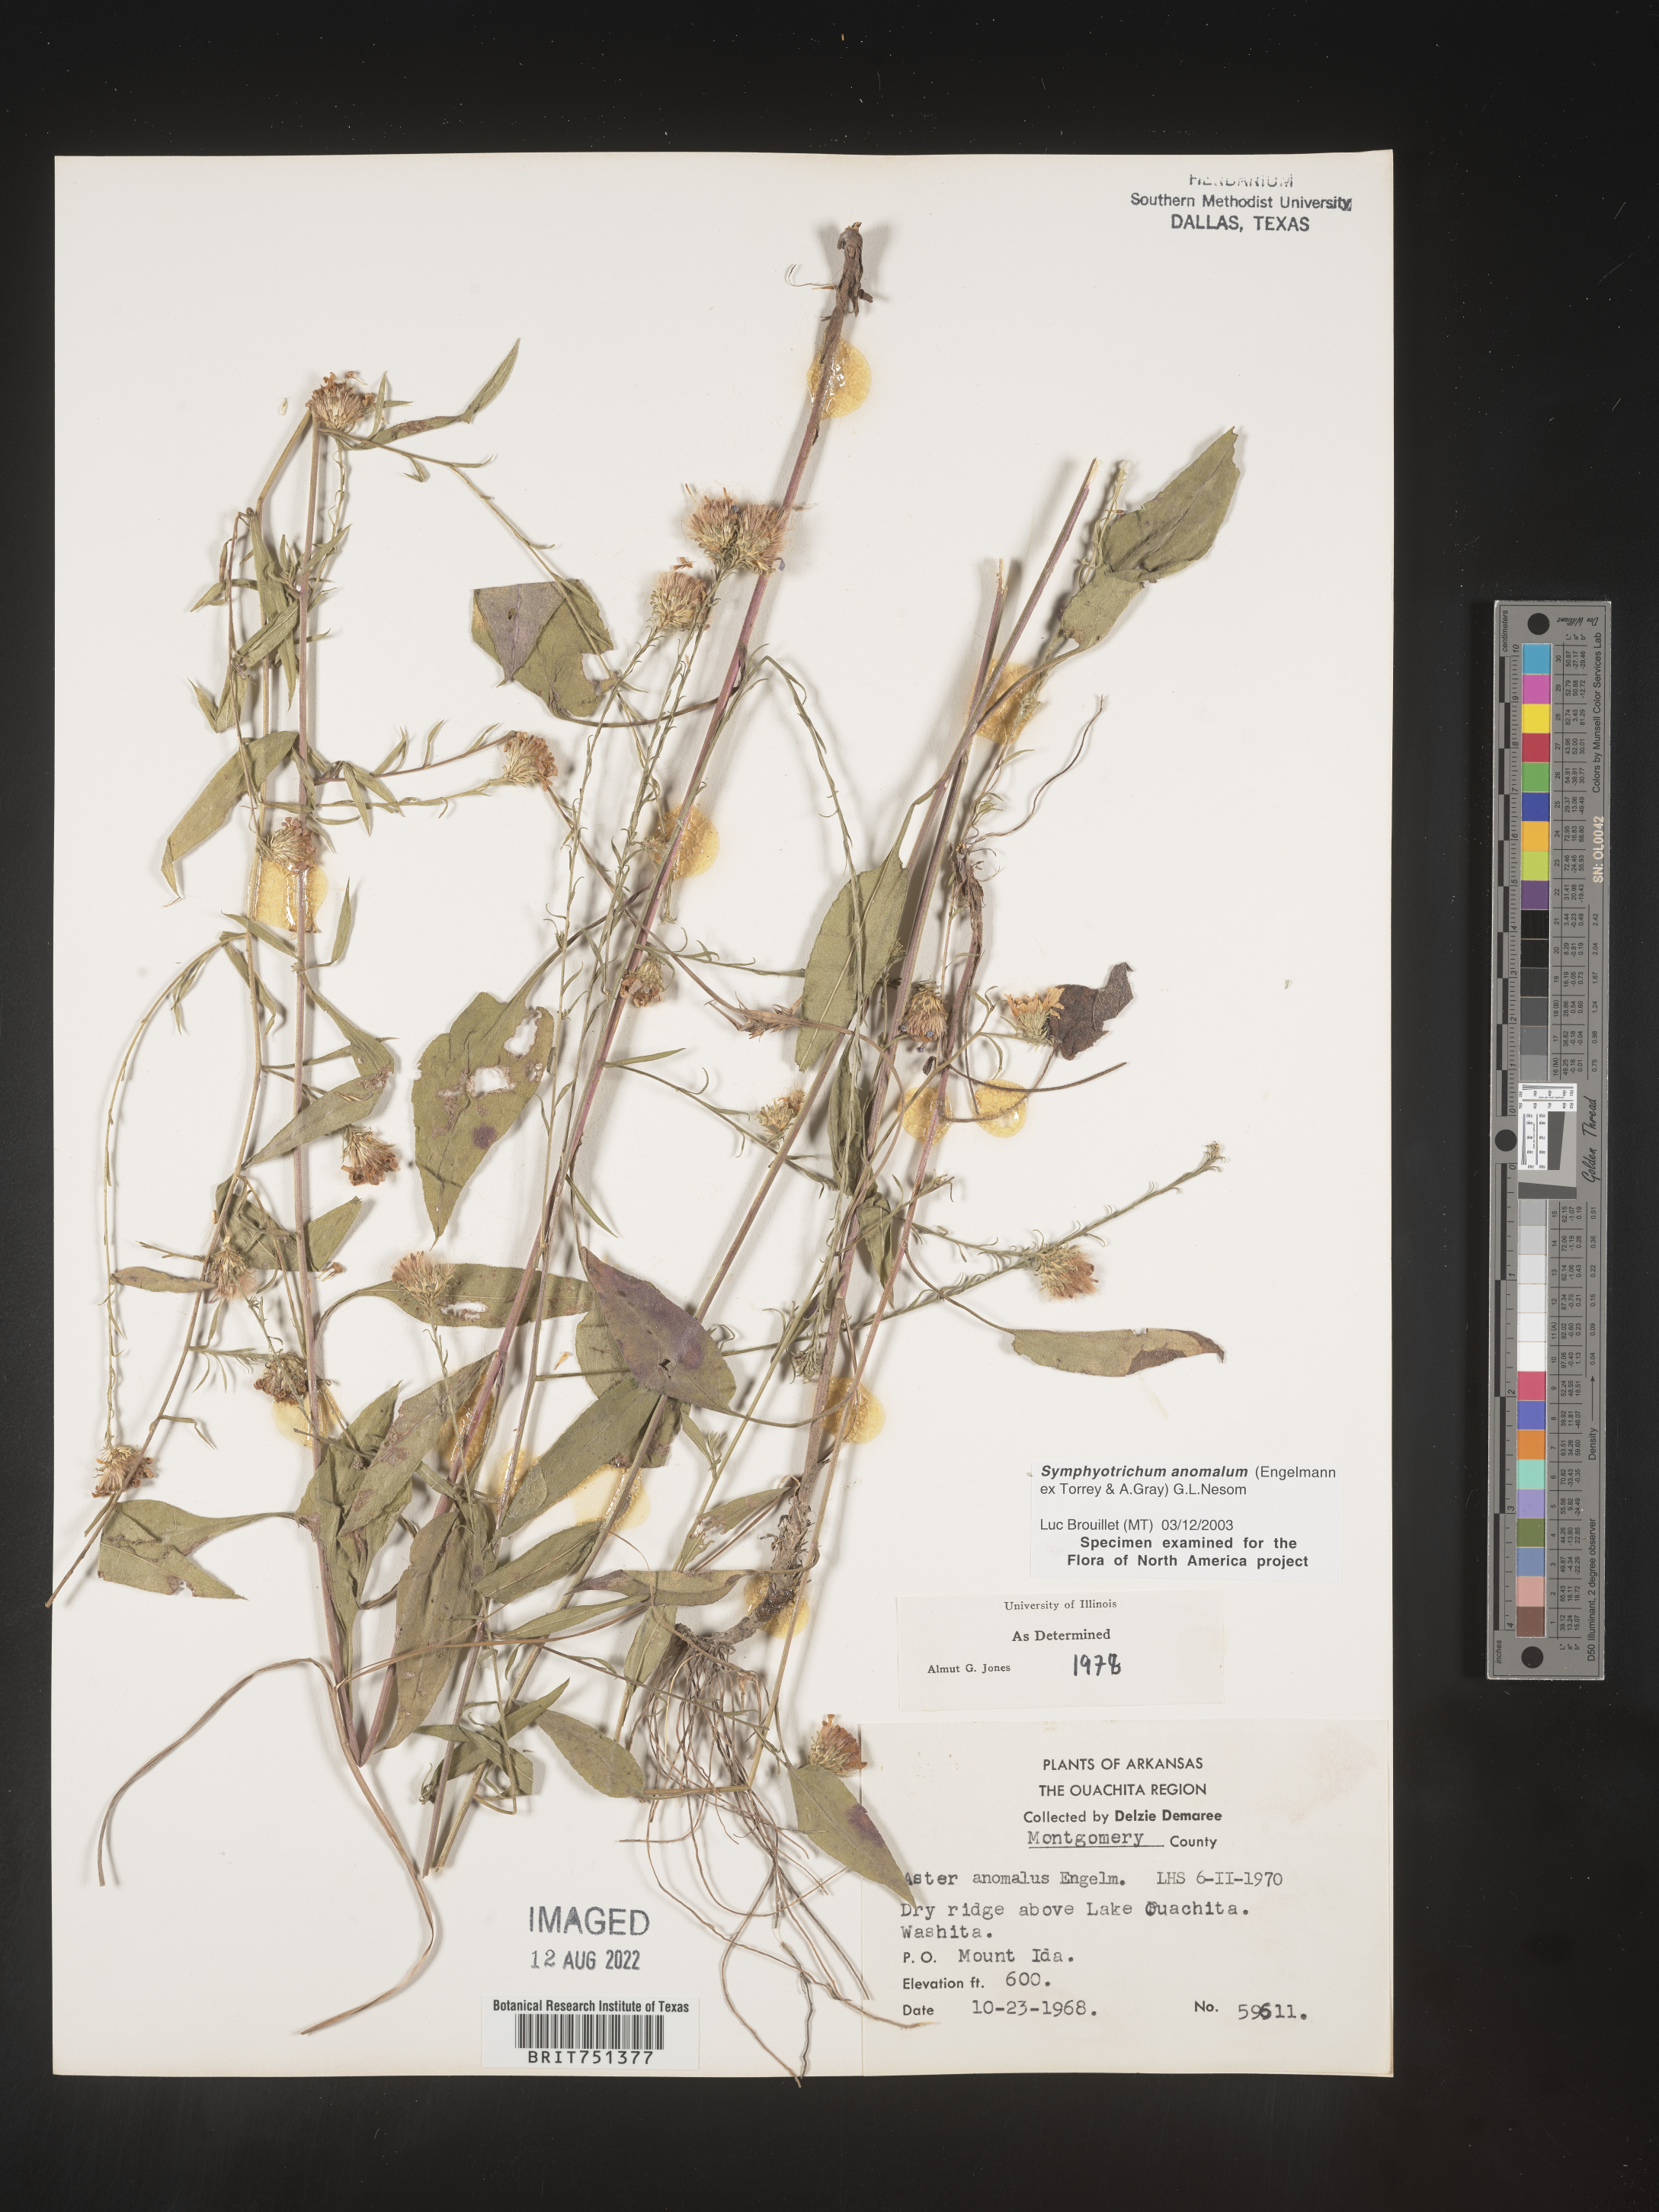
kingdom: Plantae
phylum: Tracheophyta
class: Magnoliopsida
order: Asterales
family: Asteraceae
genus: Symphyotrichum
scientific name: Symphyotrichum anomalum
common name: Many-ray aster
